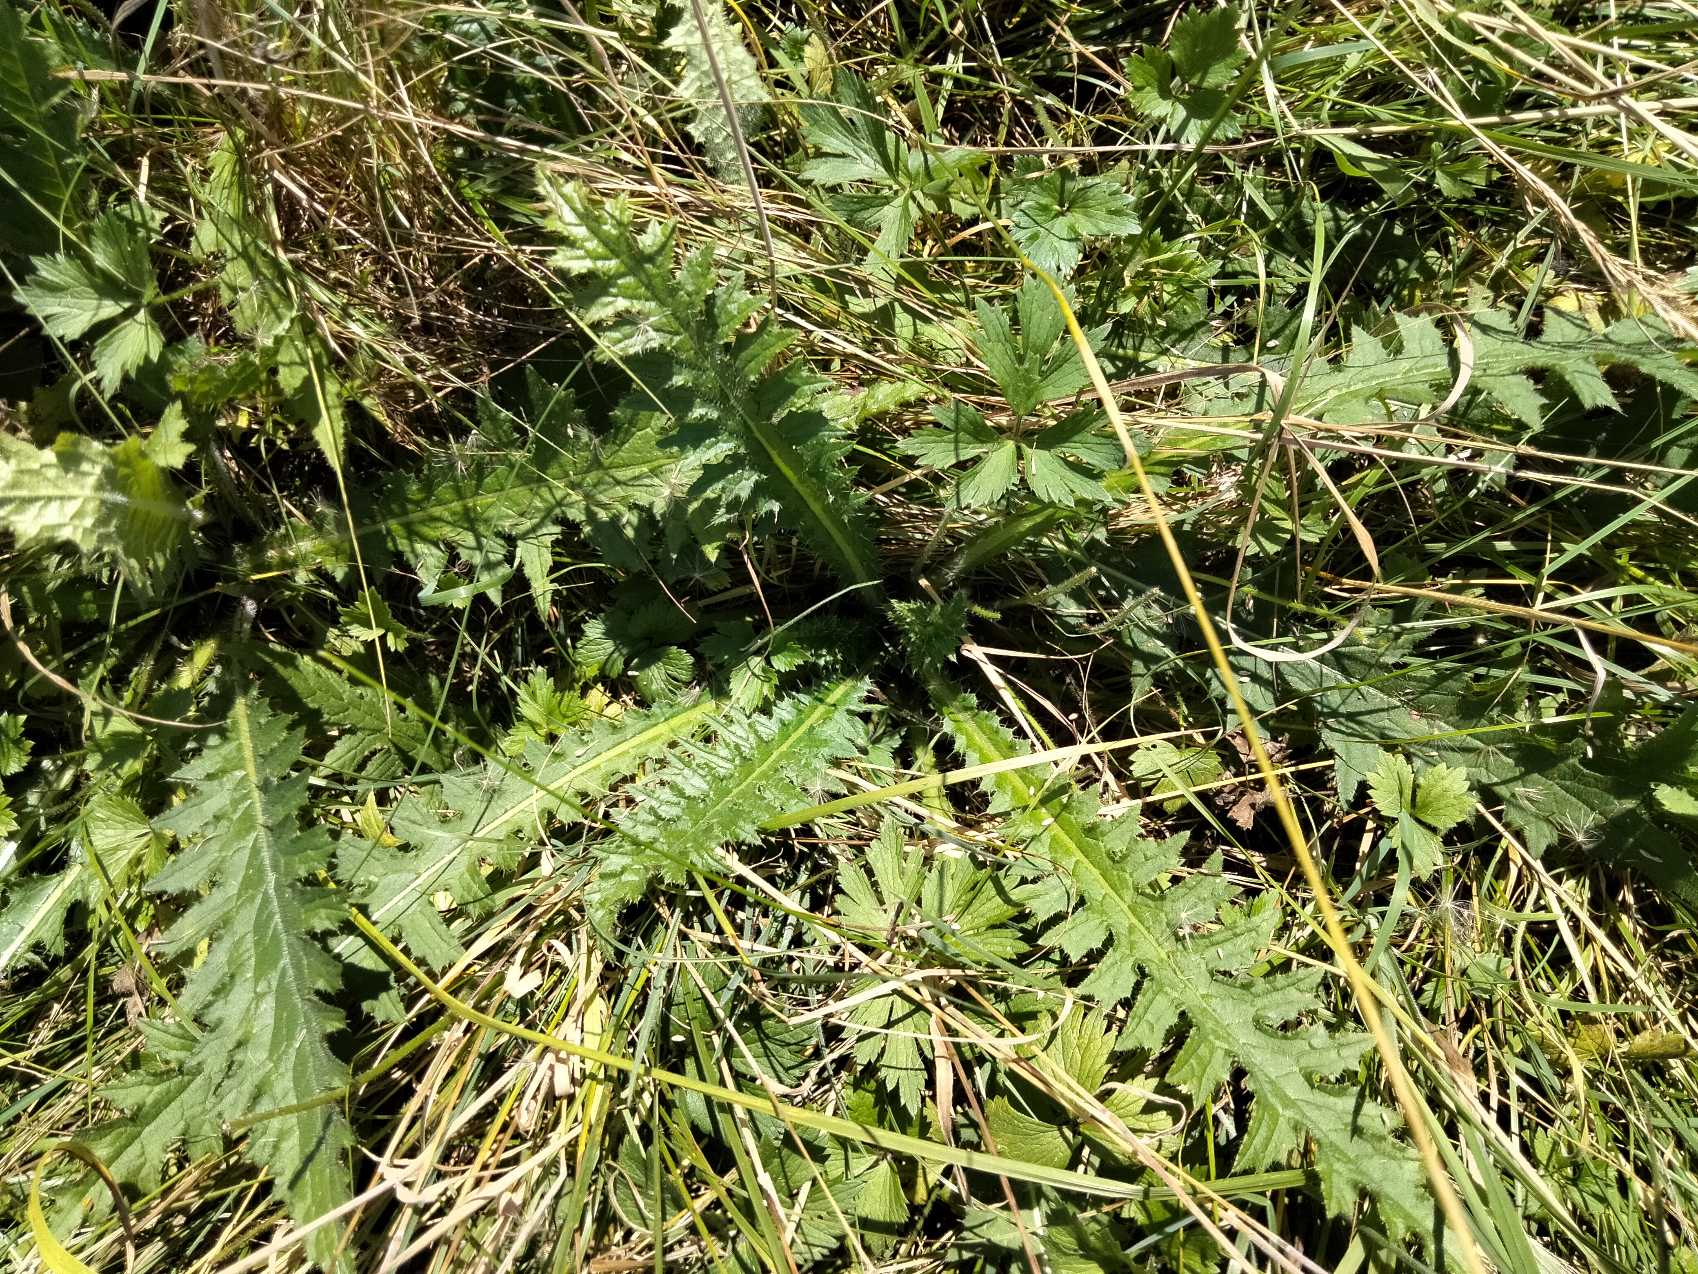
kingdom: Plantae
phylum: Tracheophyta
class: Magnoliopsida
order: Asterales
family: Asteraceae
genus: Cirsium
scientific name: Cirsium palustre
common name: Kær-tidsel
